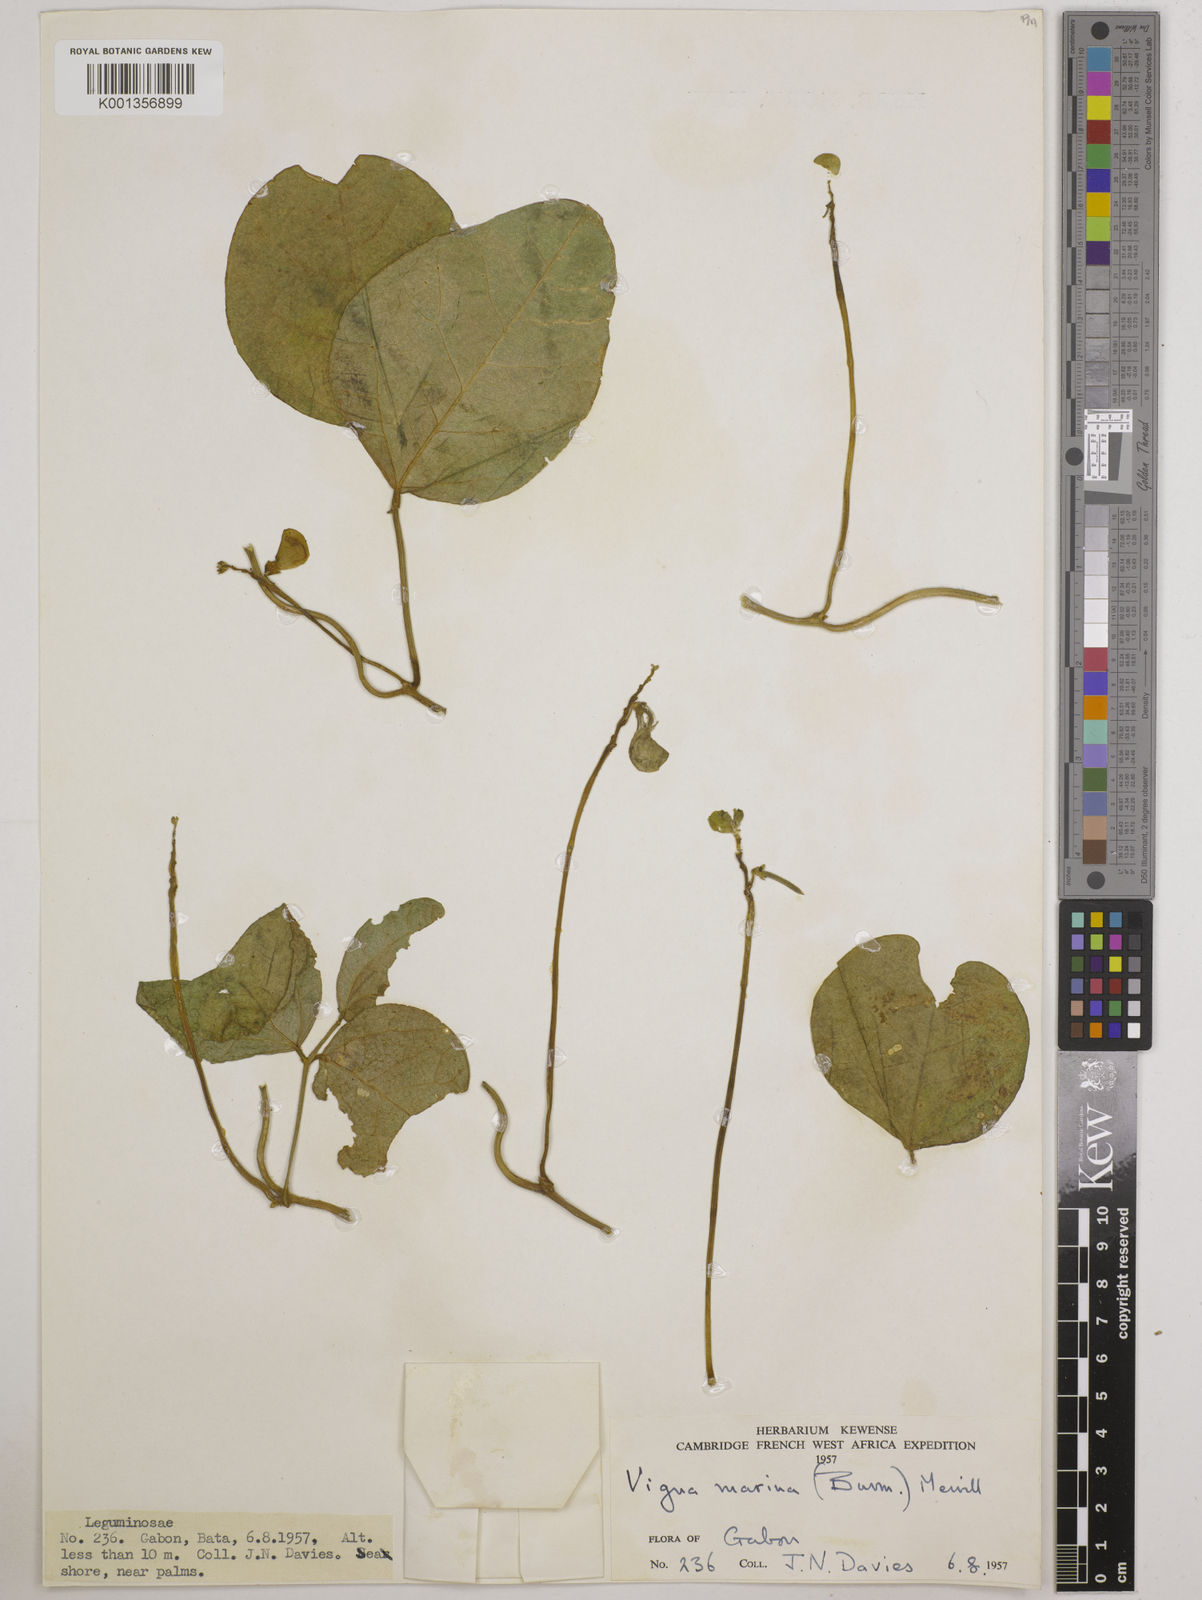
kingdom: Plantae
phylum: Tracheophyta
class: Magnoliopsida
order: Fabales
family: Fabaceae
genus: Vigna
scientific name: Vigna marina
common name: Dune-bean
